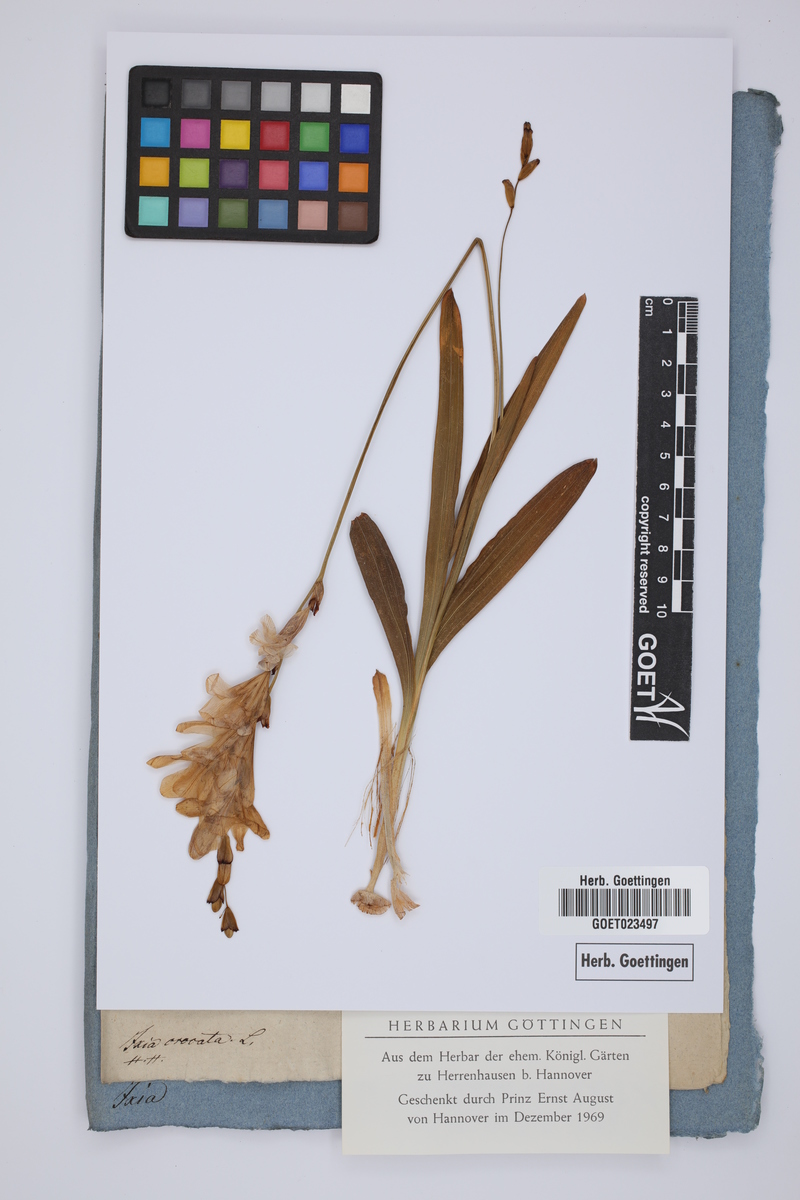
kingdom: Plantae
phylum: Tracheophyta
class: Liliopsida
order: Asparagales
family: Iridaceae
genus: Tritonia
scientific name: Tritonia crocata
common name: Flame-freesia
